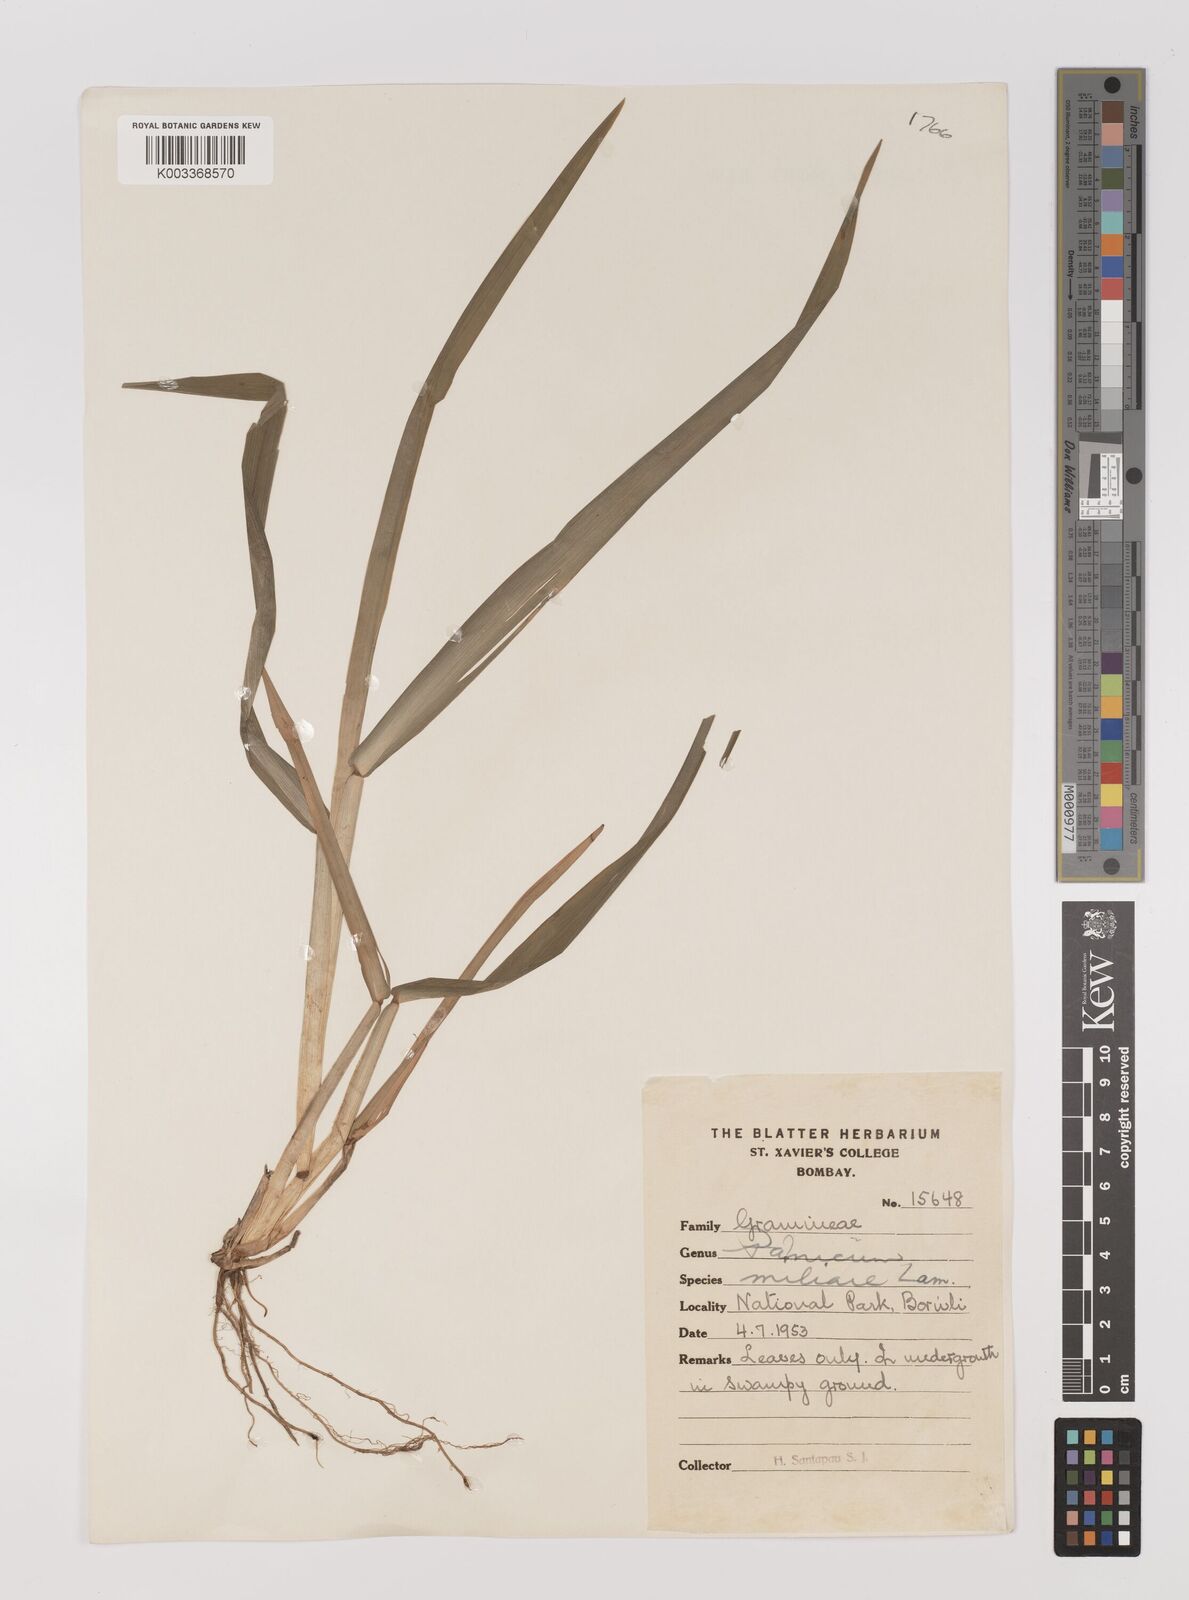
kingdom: Plantae
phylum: Tracheophyta
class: Liliopsida
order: Poales
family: Poaceae
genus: Panicum
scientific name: Panicum sumatrense
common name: Little millet
